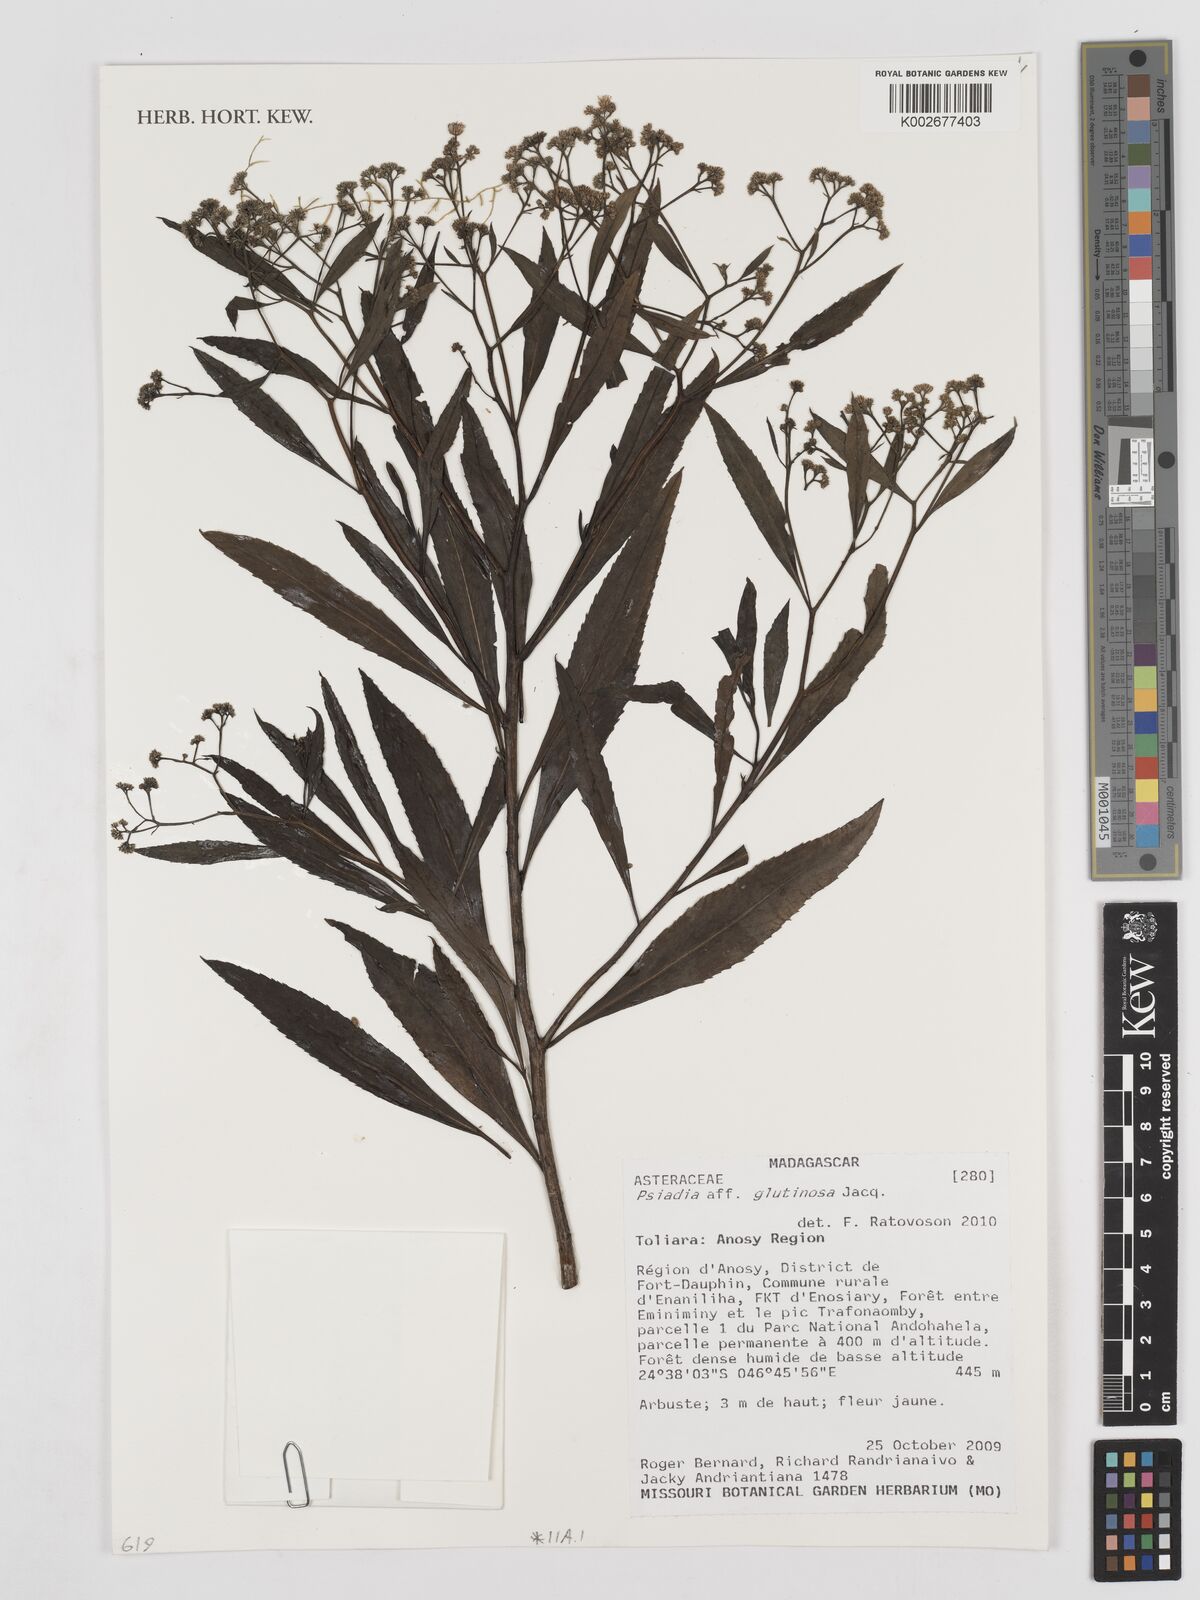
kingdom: Plantae
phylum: Tracheophyta
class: Magnoliopsida
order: Asterales
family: Asteraceae
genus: Psiadia
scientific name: Psiadia glutinosa
